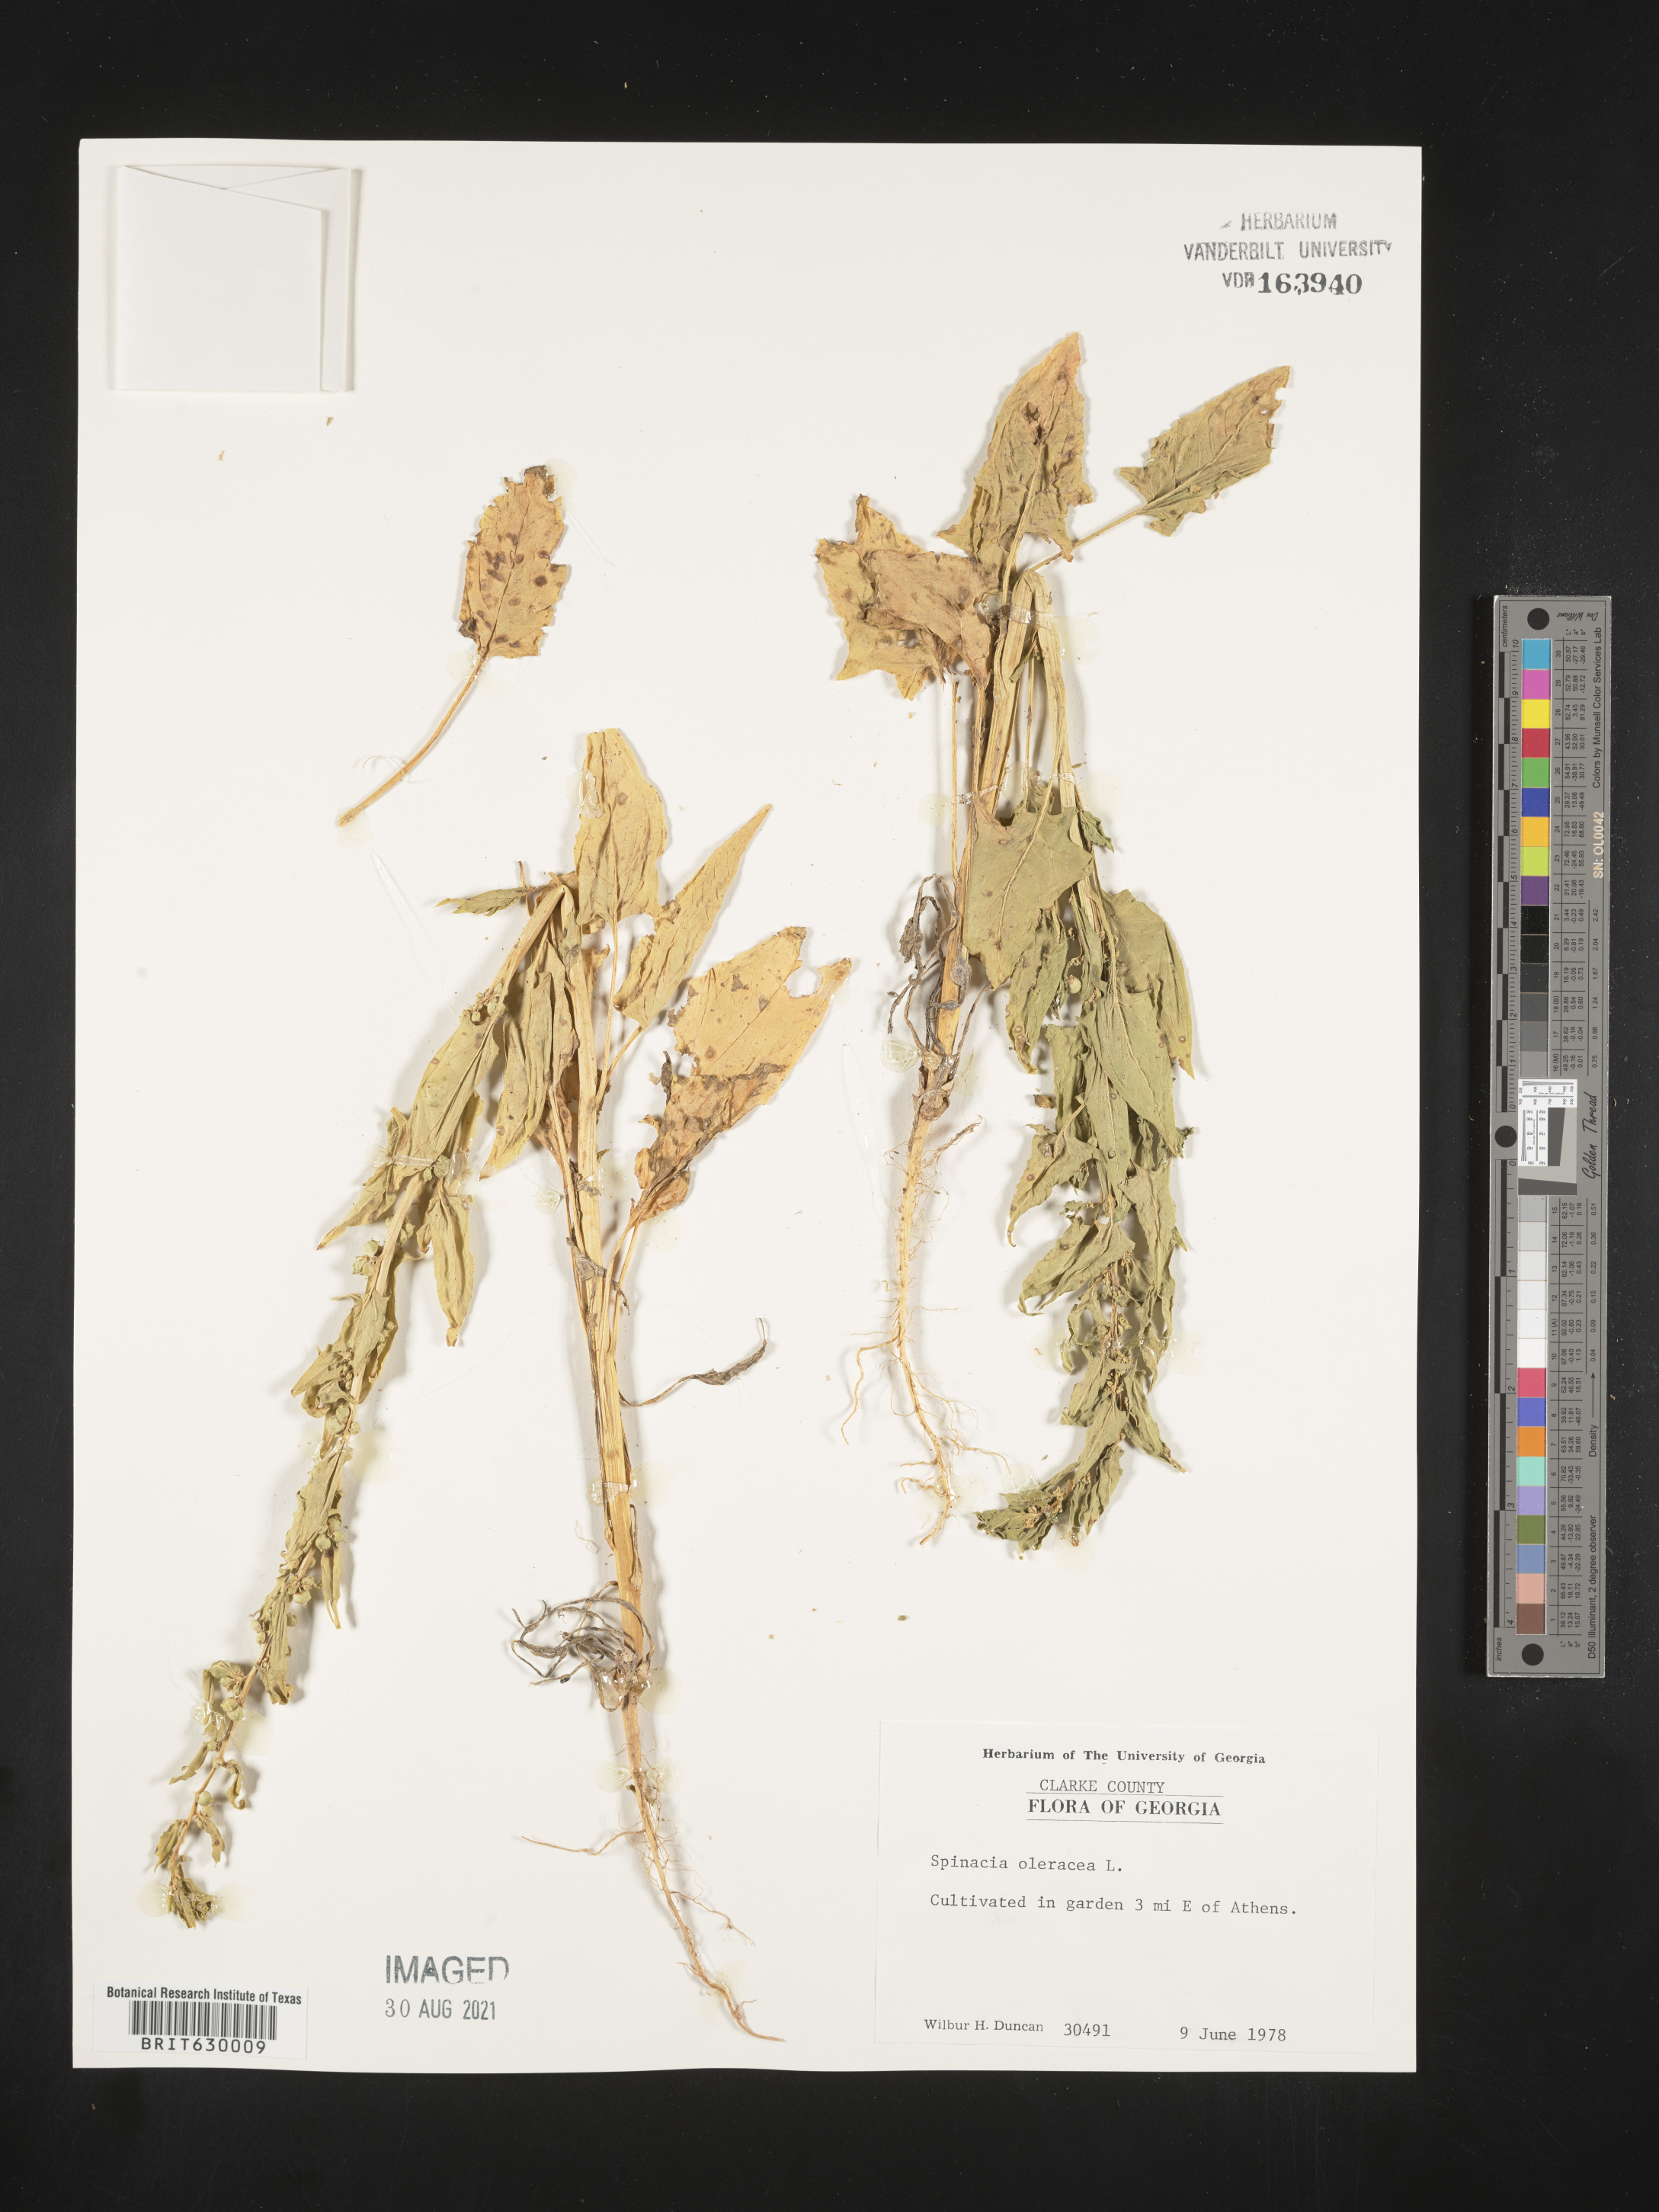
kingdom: Plantae
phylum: Tracheophyta
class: Magnoliopsida
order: Caryophyllales
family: Amaranthaceae
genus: Spinacia
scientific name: Spinacia oleracea
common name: Spinach
